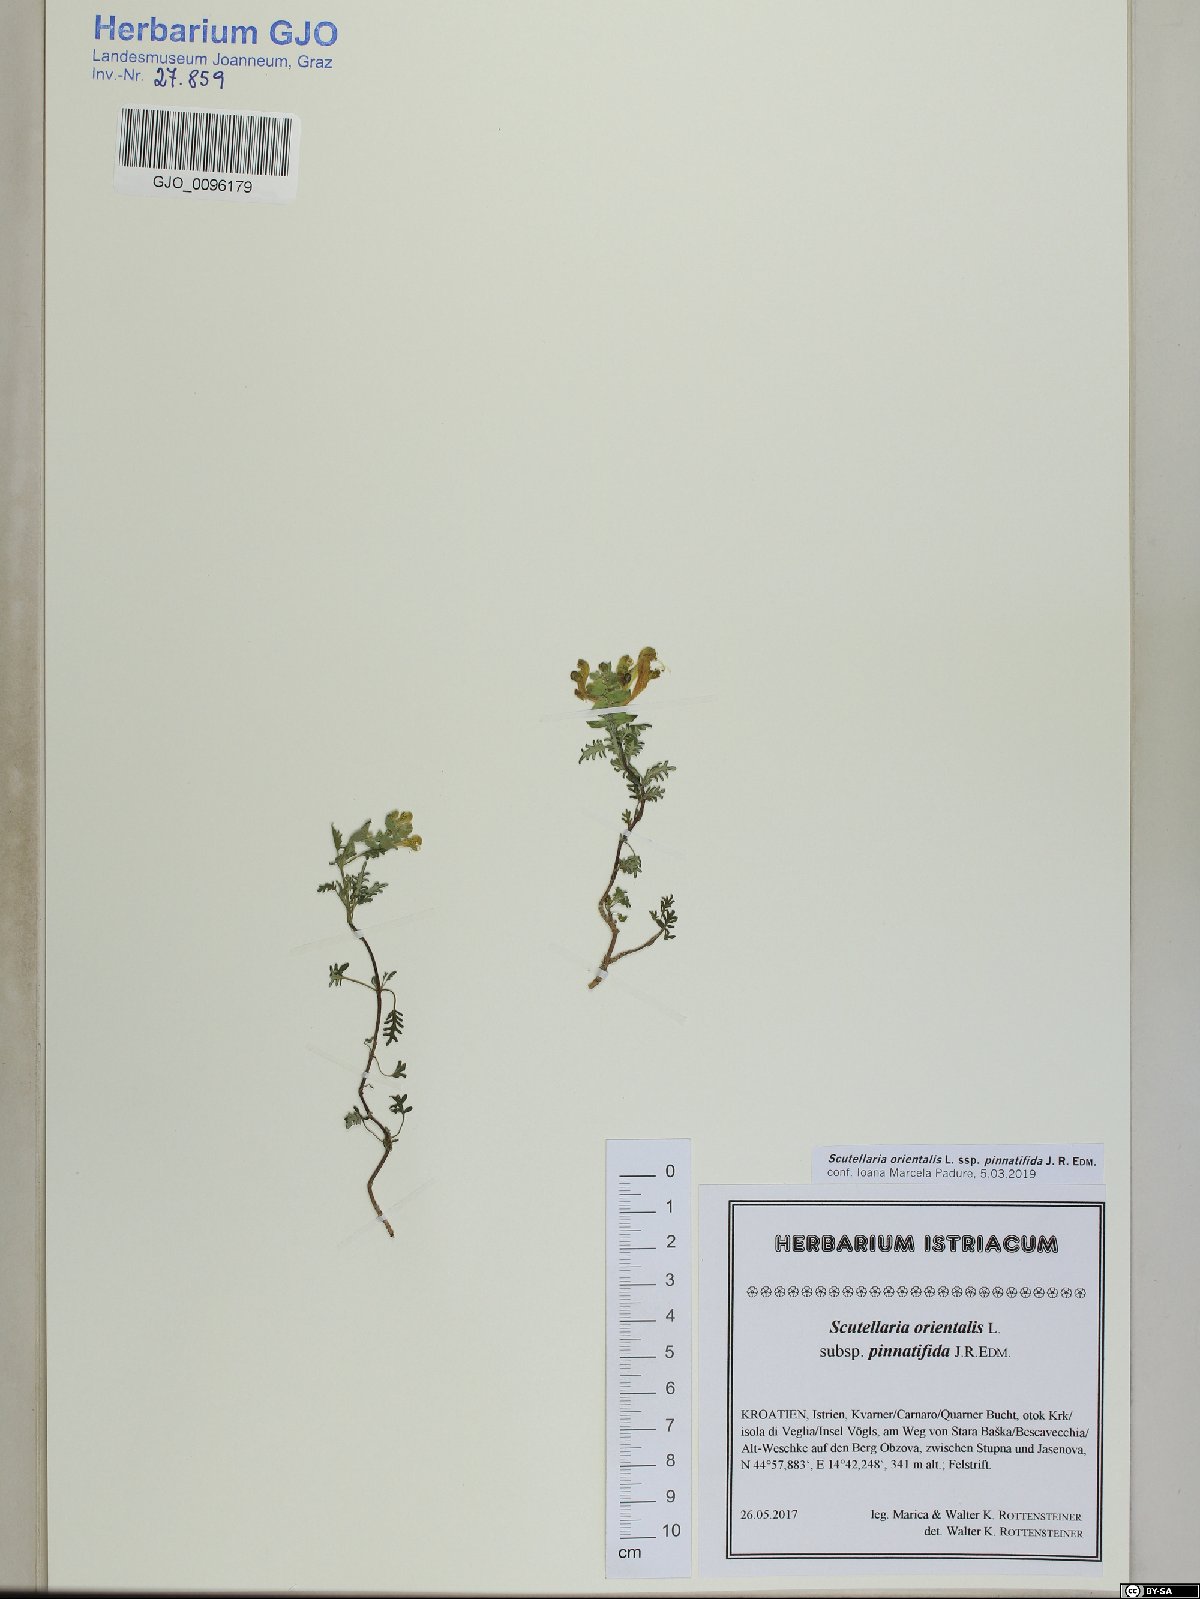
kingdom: Plantae
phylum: Tracheophyta
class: Magnoliopsida
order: Lamiales
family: Lamiaceae
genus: Scutellaria
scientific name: Scutellaria orientalis
